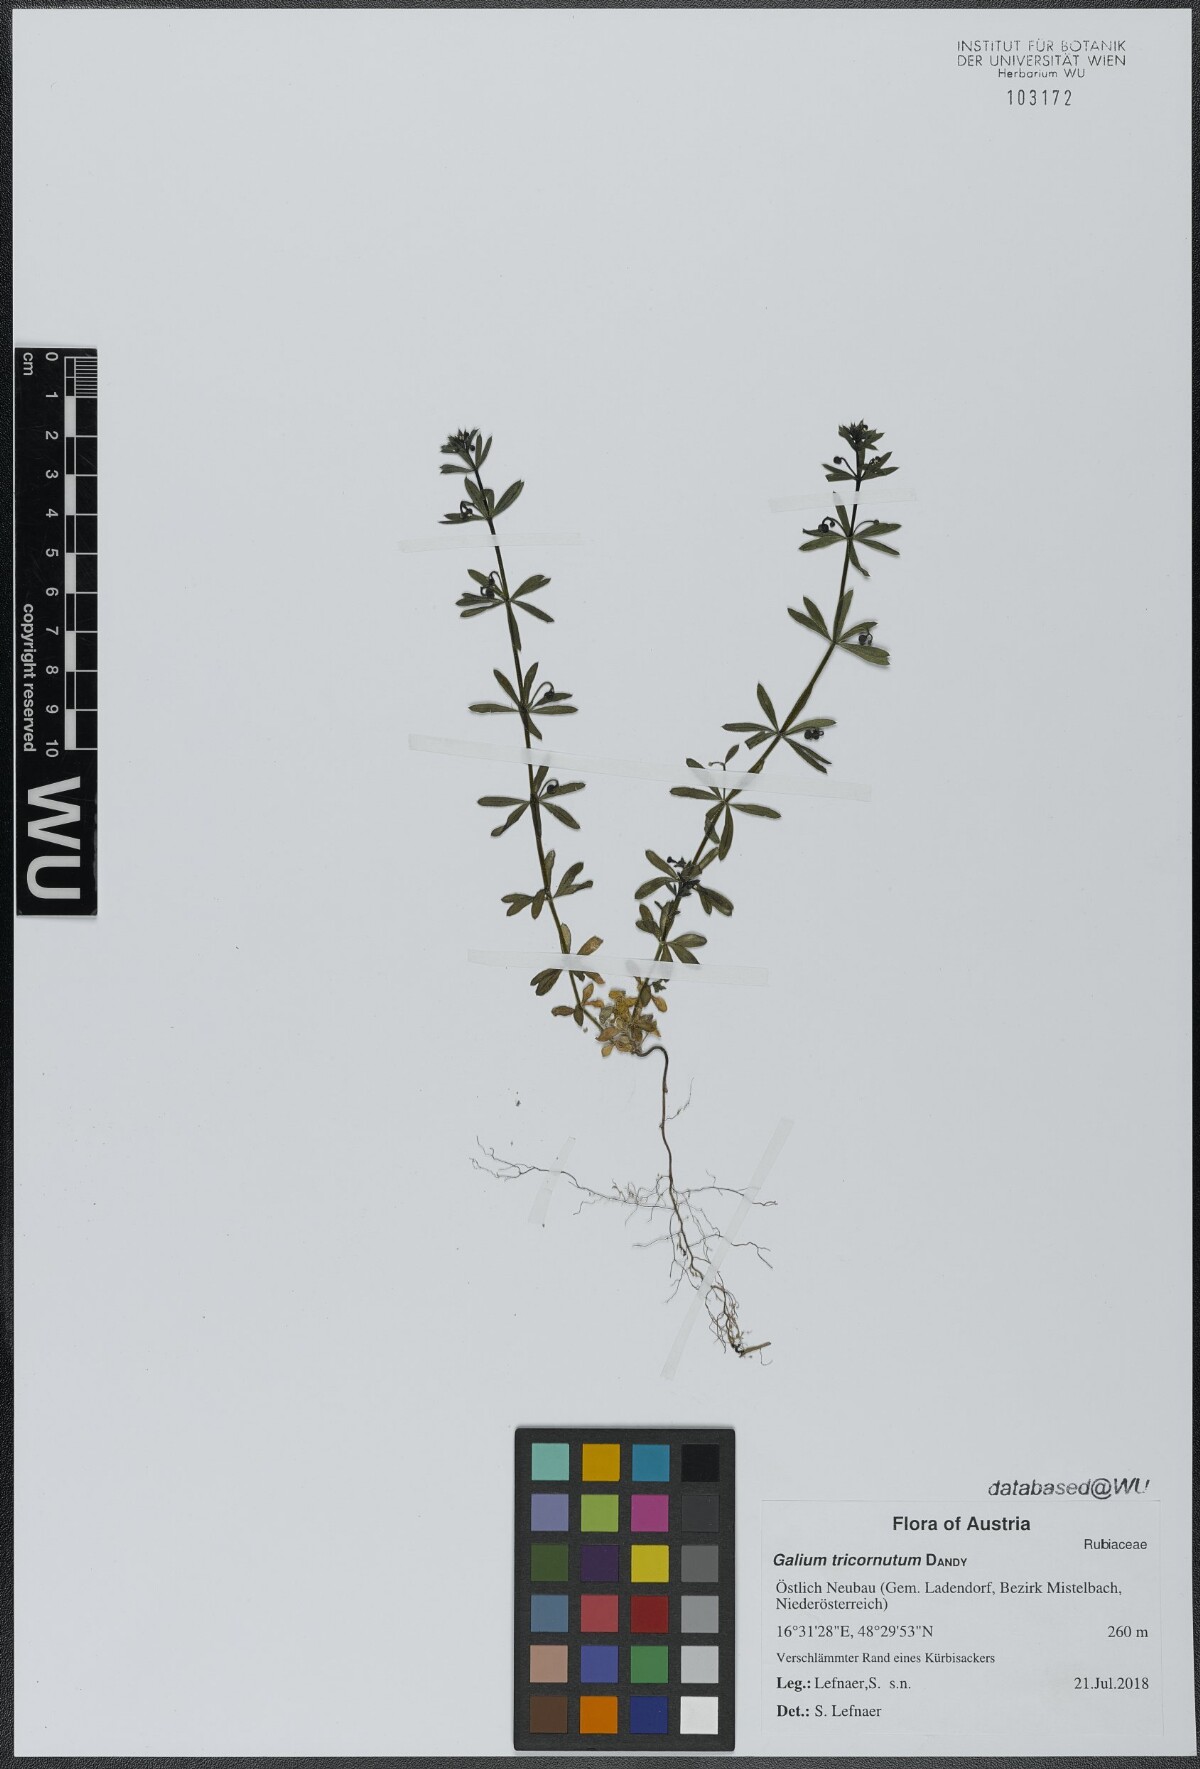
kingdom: Plantae
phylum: Tracheophyta
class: Magnoliopsida
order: Gentianales
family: Rubiaceae
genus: Galium
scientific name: Galium tricornutum
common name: Corn cleavers
